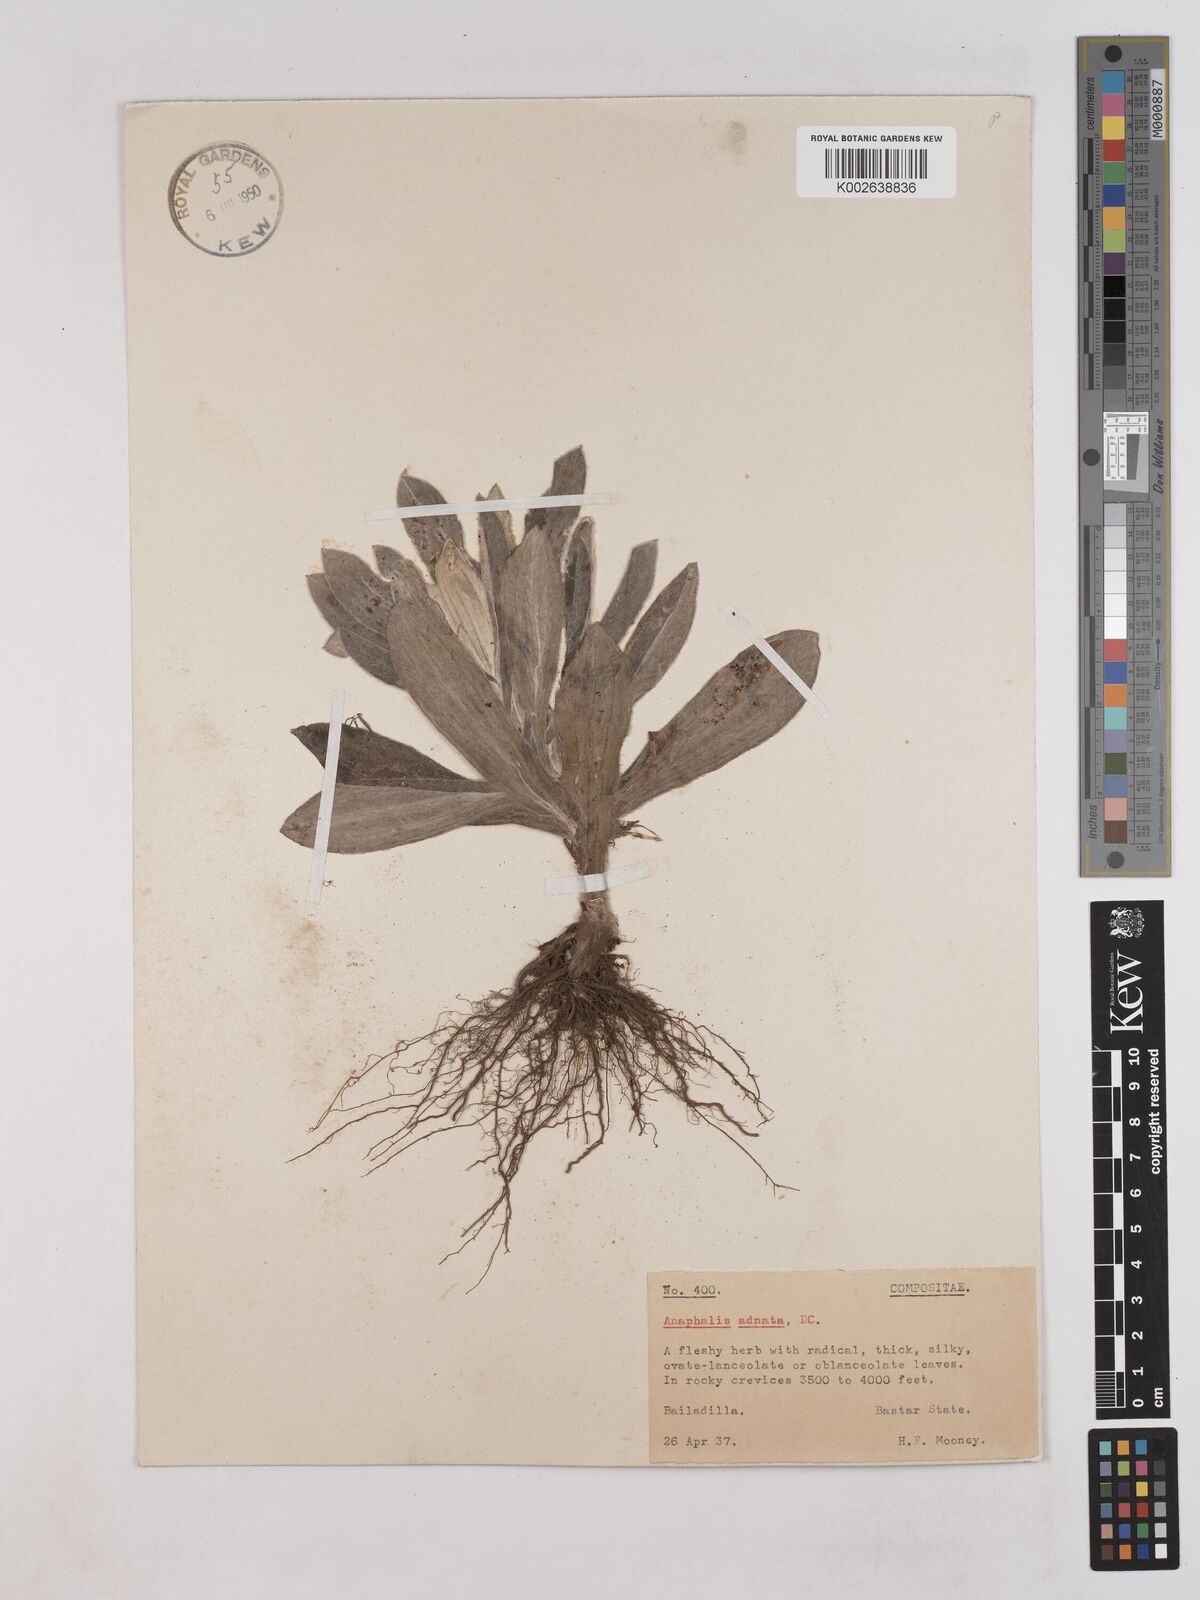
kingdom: Plantae
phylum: Tracheophyta
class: Magnoliopsida
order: Asterales
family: Asteraceae
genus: Pseudognaphalium
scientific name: Pseudognaphalium adnatum
